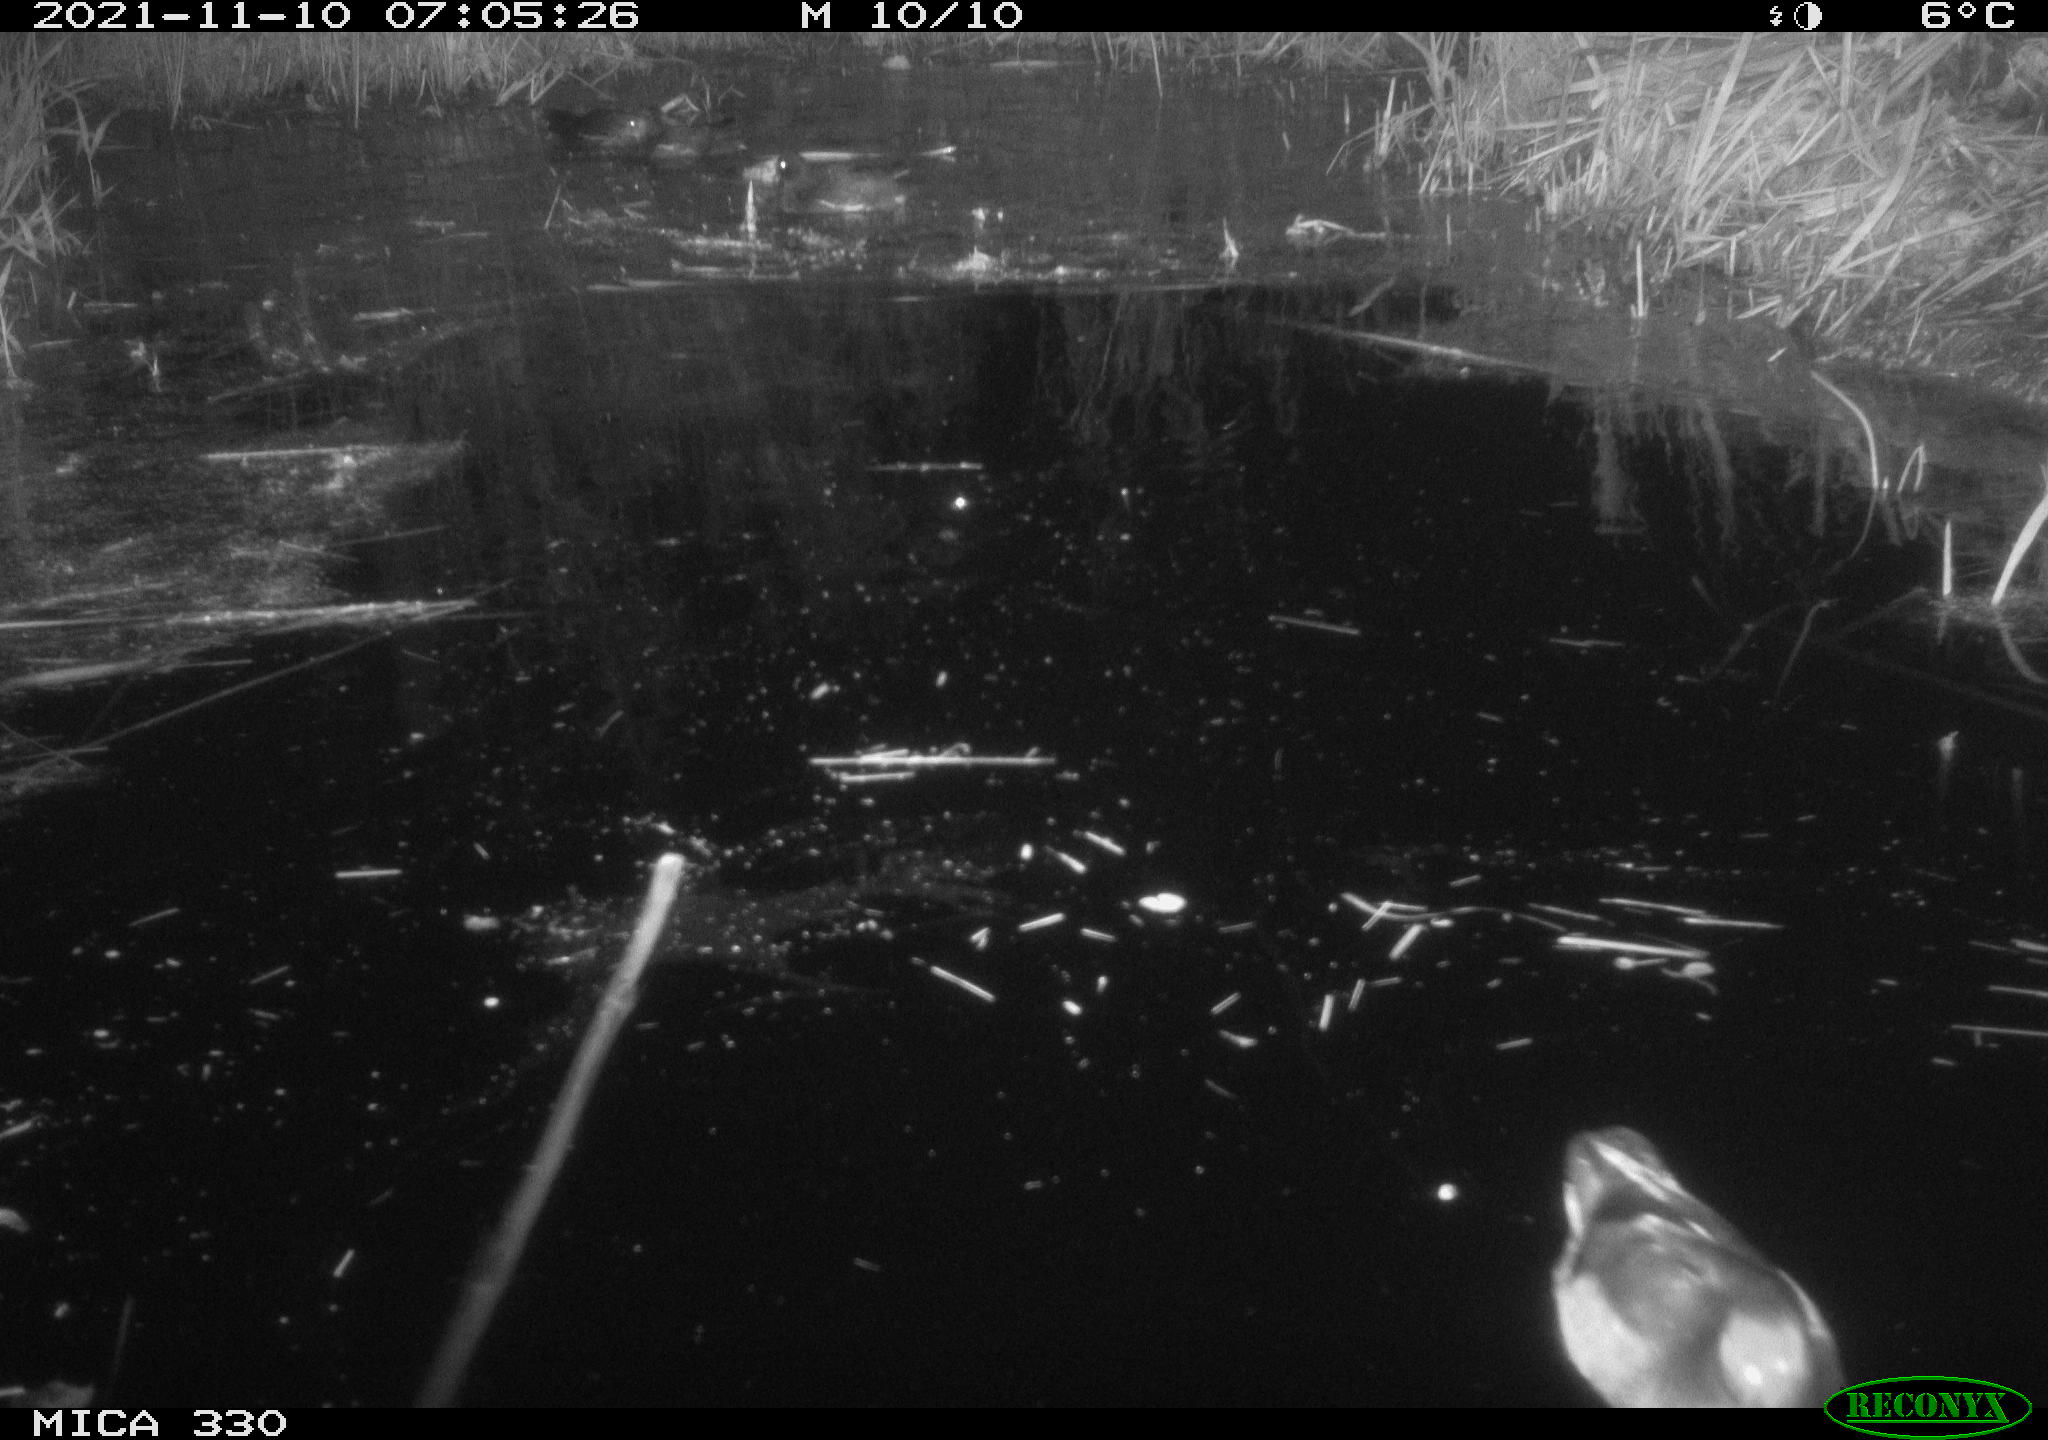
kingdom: Animalia
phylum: Chordata
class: Aves
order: Gruiformes
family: Rallidae
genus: Gallinula
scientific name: Gallinula chloropus
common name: Common moorhen
